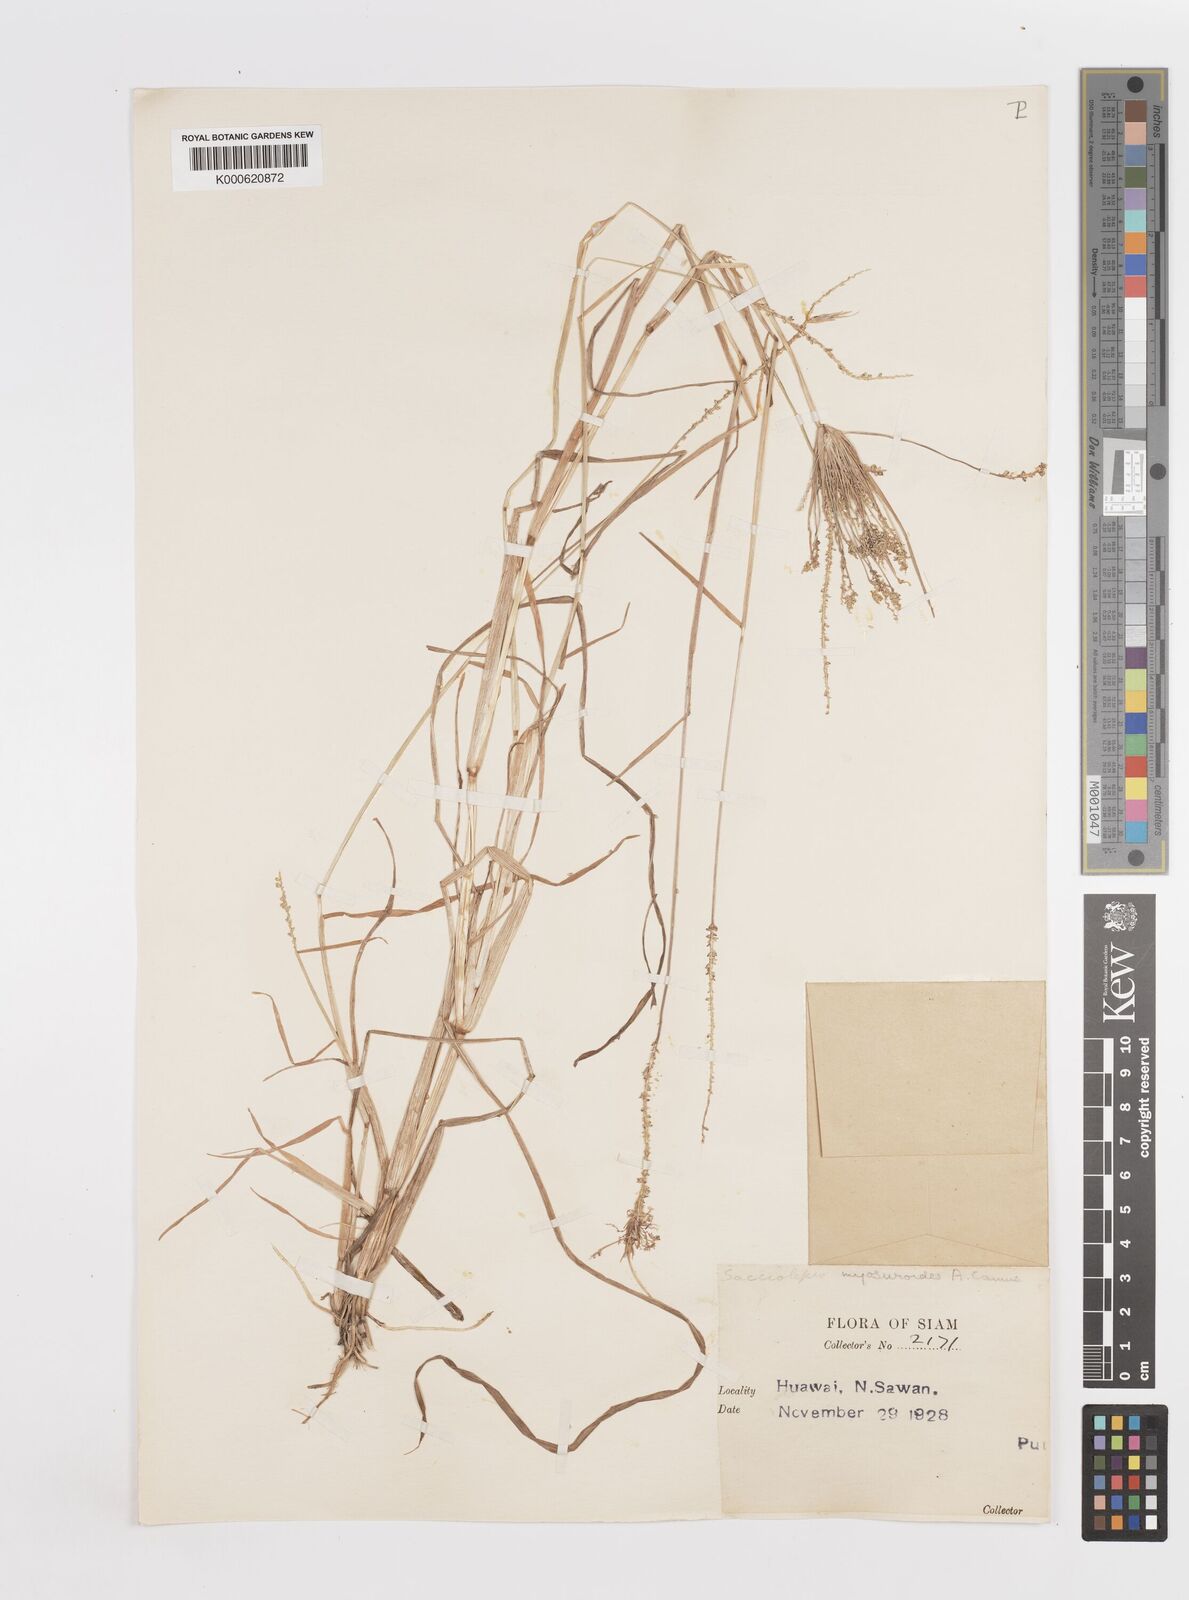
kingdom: Plantae
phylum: Tracheophyta
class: Liliopsida
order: Poales
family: Poaceae
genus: Sacciolepis
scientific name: Sacciolepis myosuroides
